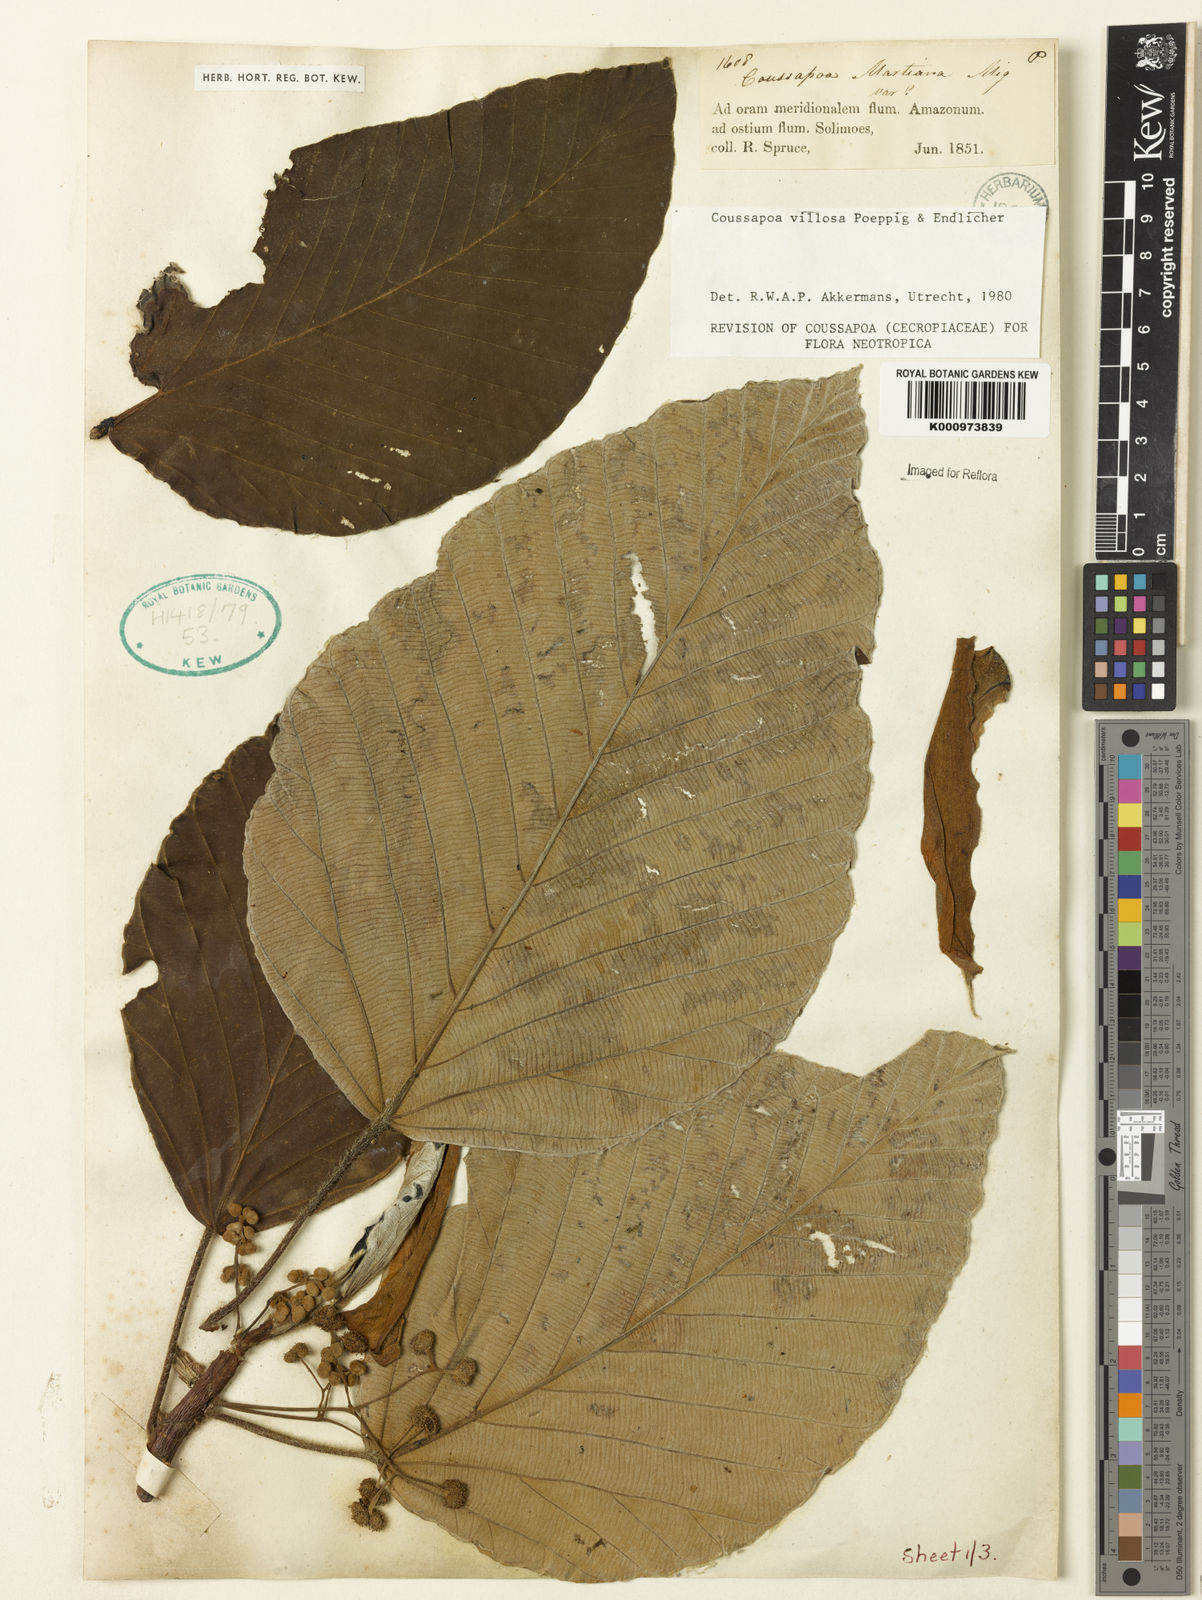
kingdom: Plantae
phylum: Tracheophyta
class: Magnoliopsida
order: Rosales
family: Urticaceae
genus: Coussapoa
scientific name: Coussapoa villosa
